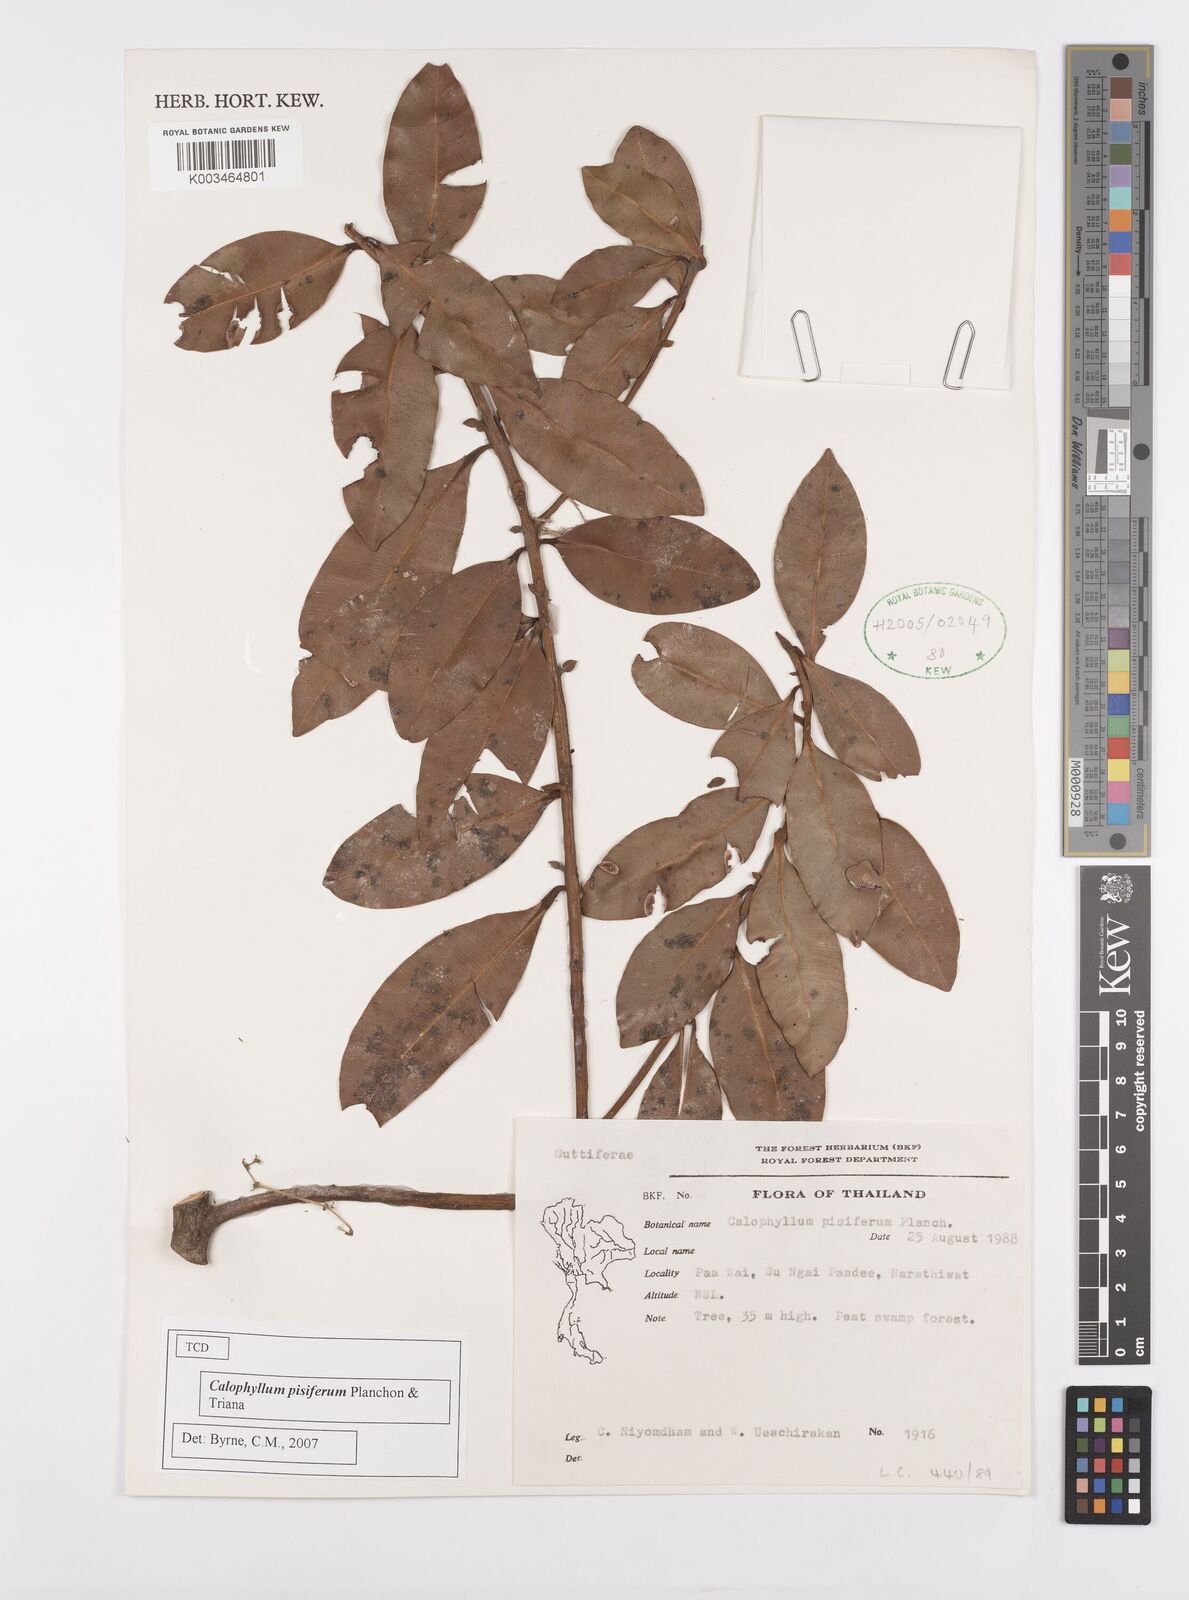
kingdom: Plantae
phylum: Tracheophyta
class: Magnoliopsida
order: Malpighiales
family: Calophyllaceae
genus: Calophyllum
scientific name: Calophyllum pisiferum
